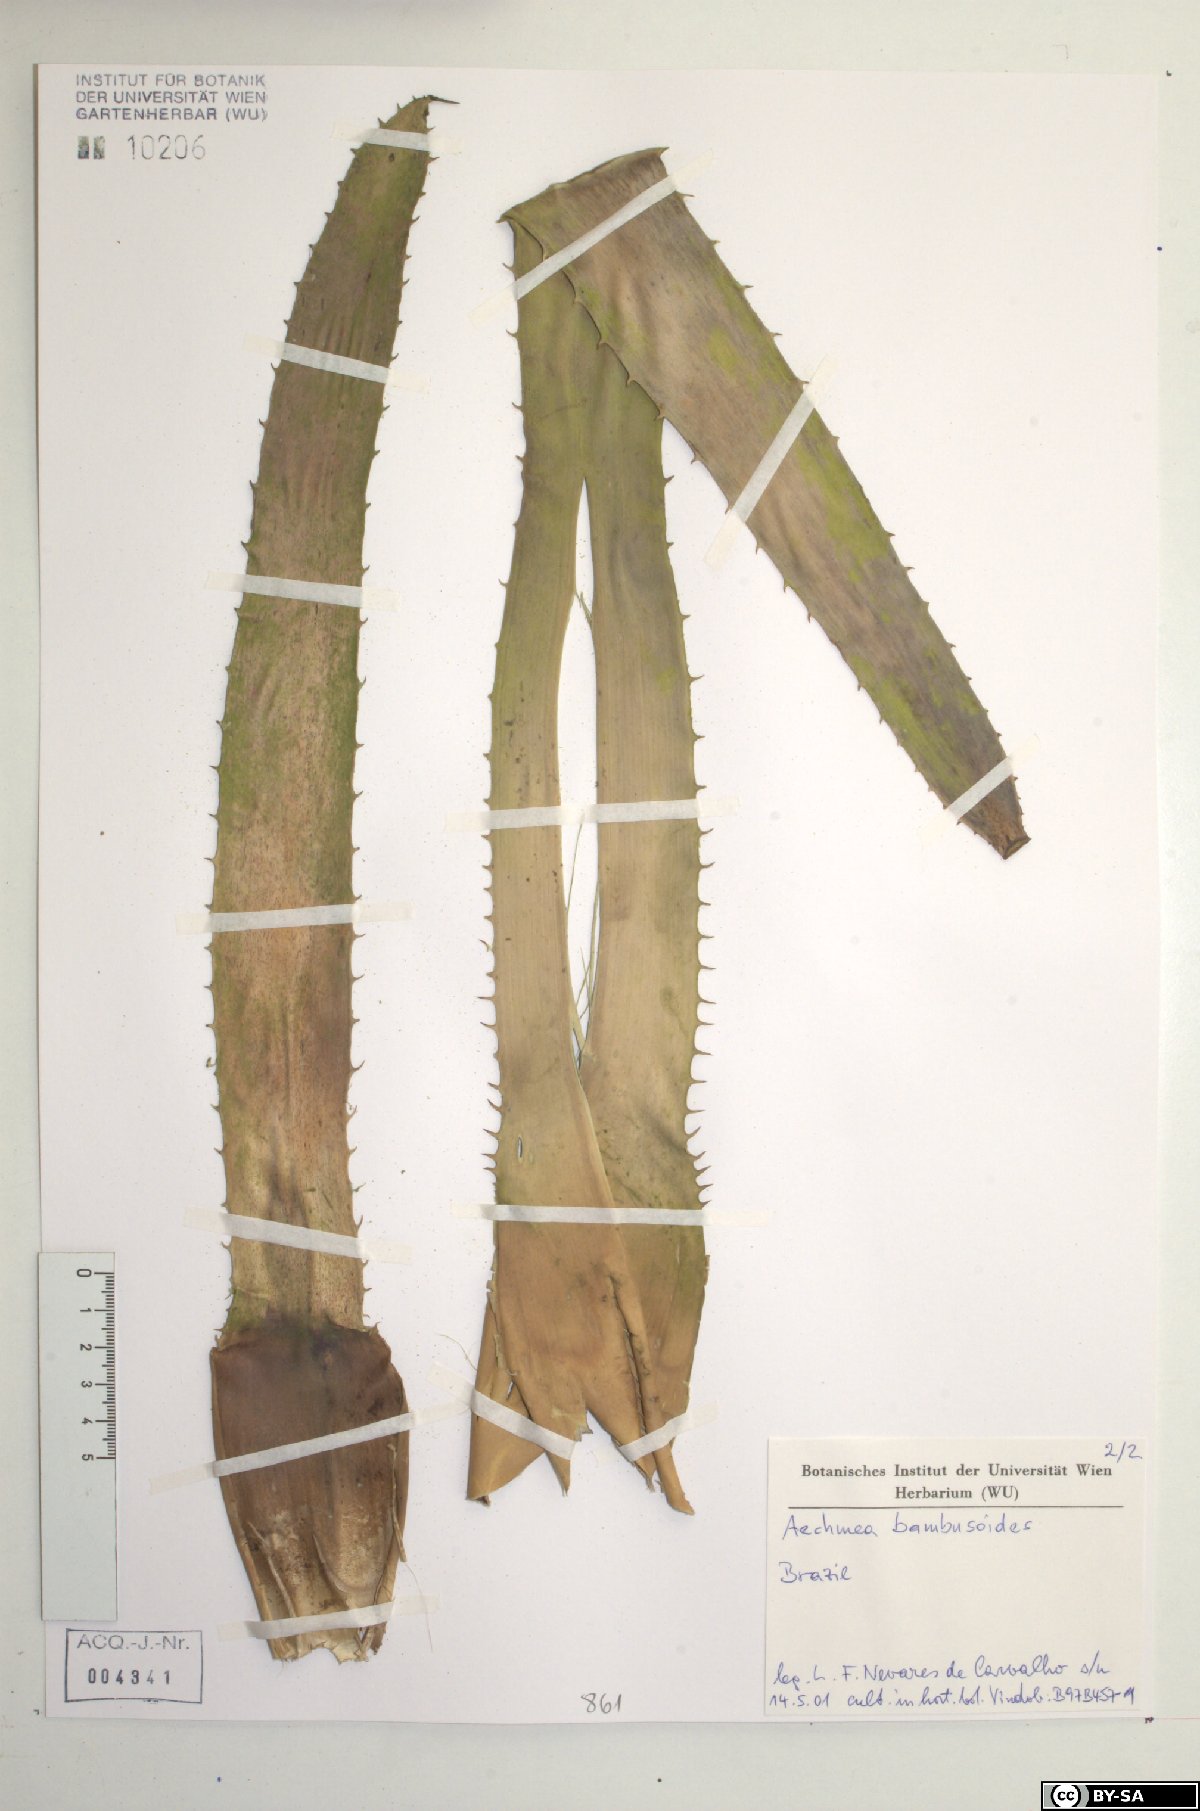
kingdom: Plantae
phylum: Tracheophyta
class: Liliopsida
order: Poales
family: Bromeliaceae
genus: Aechmea
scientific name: Aechmea bambusoides
